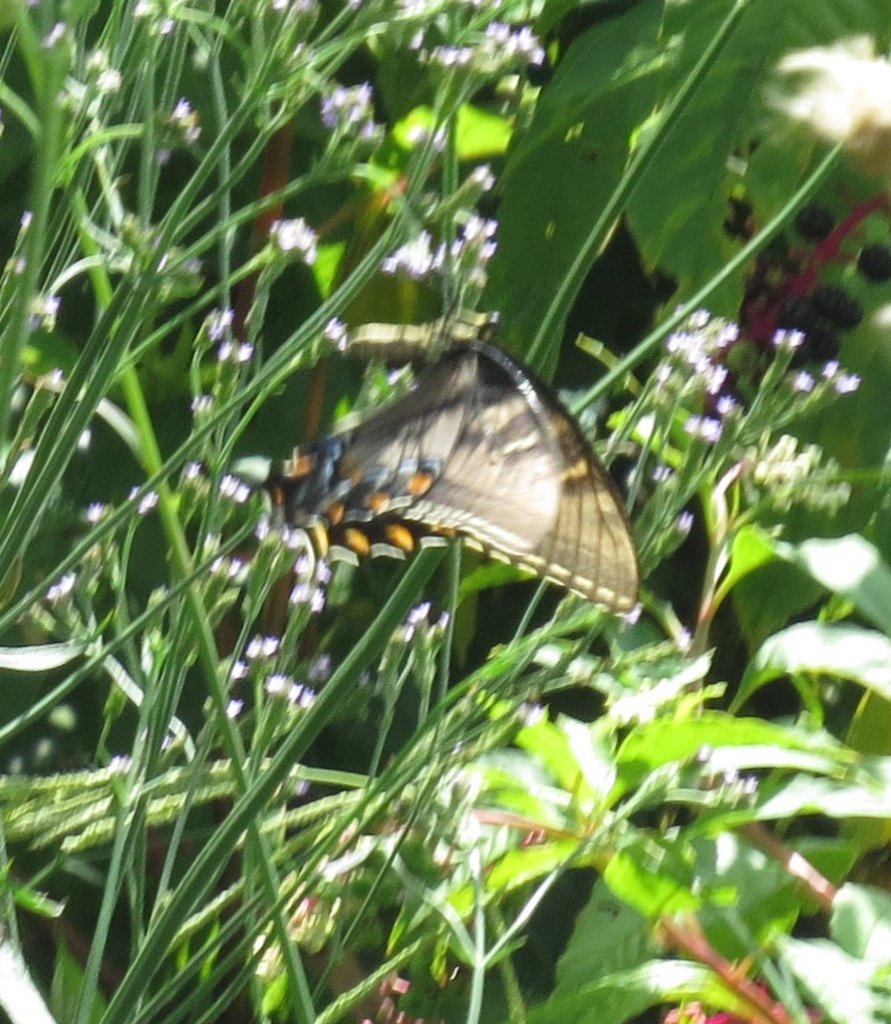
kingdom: Animalia
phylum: Arthropoda
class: Insecta
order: Lepidoptera
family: Papilionidae
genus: Pterourus
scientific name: Pterourus glaucus
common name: Eastern Tiger Swallowtail
